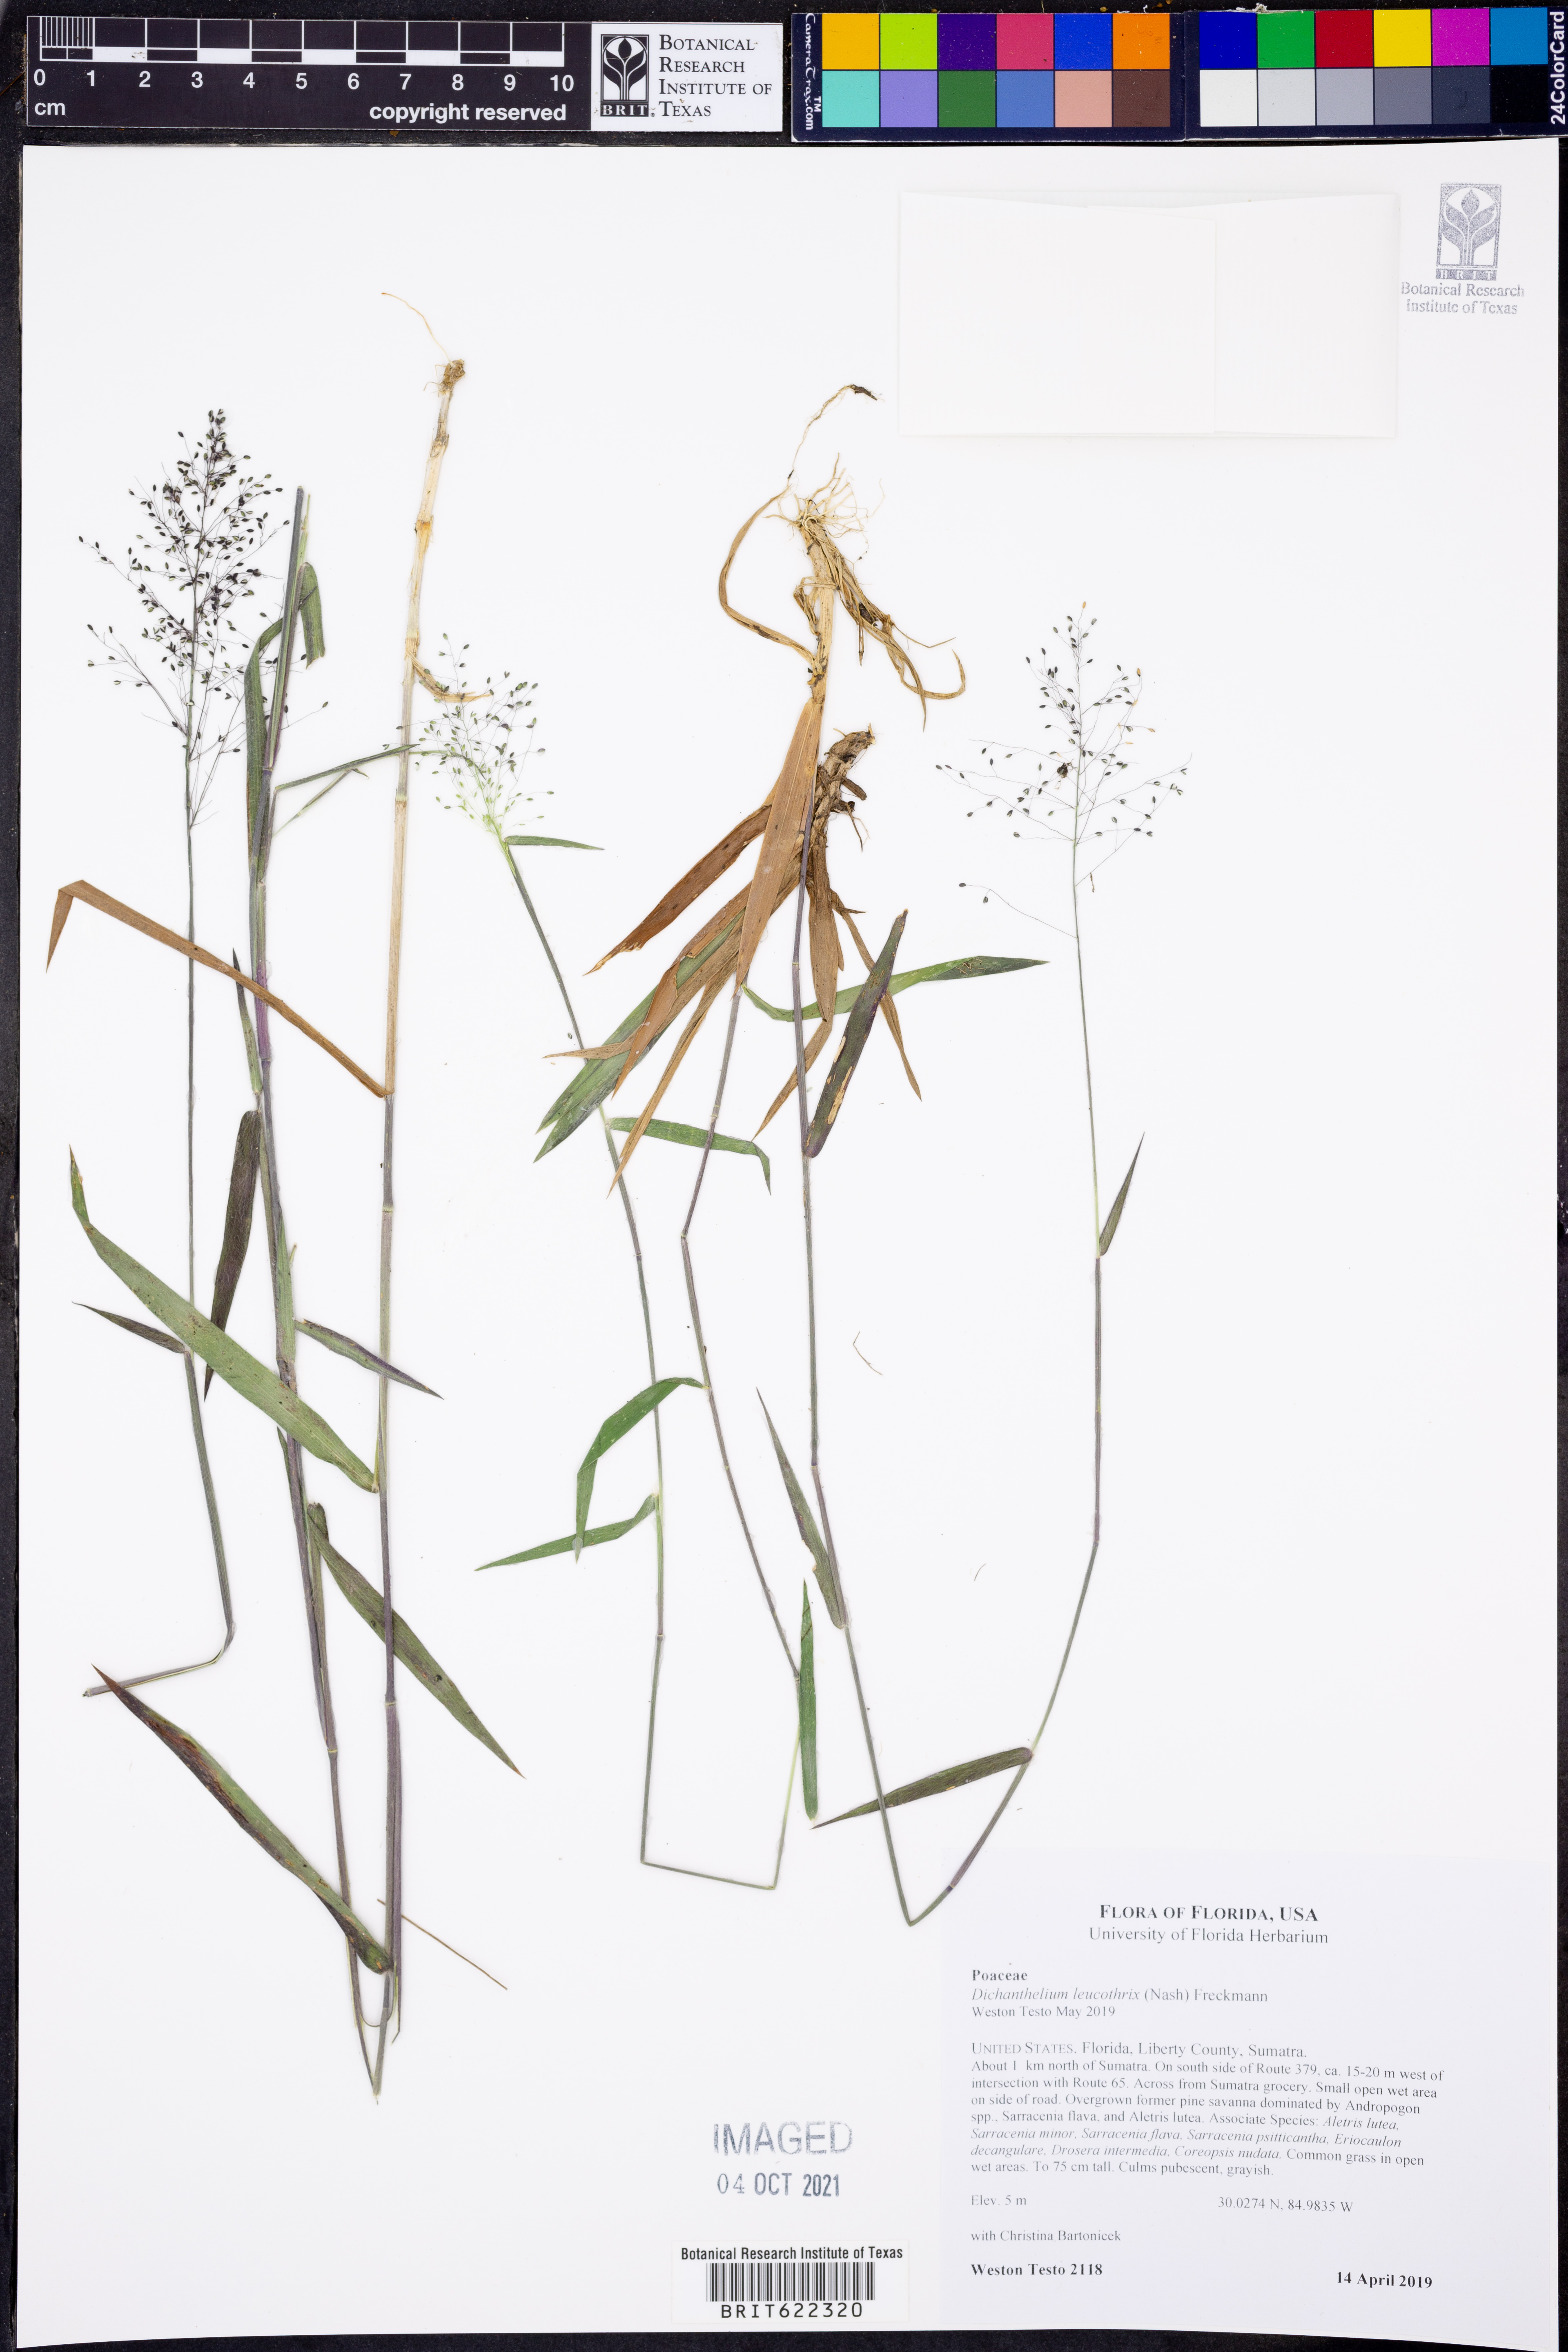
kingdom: Plantae
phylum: Tracheophyta
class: Liliopsida
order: Poales
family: Poaceae
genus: Dichanthelium
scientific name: Dichanthelium leucothrix
